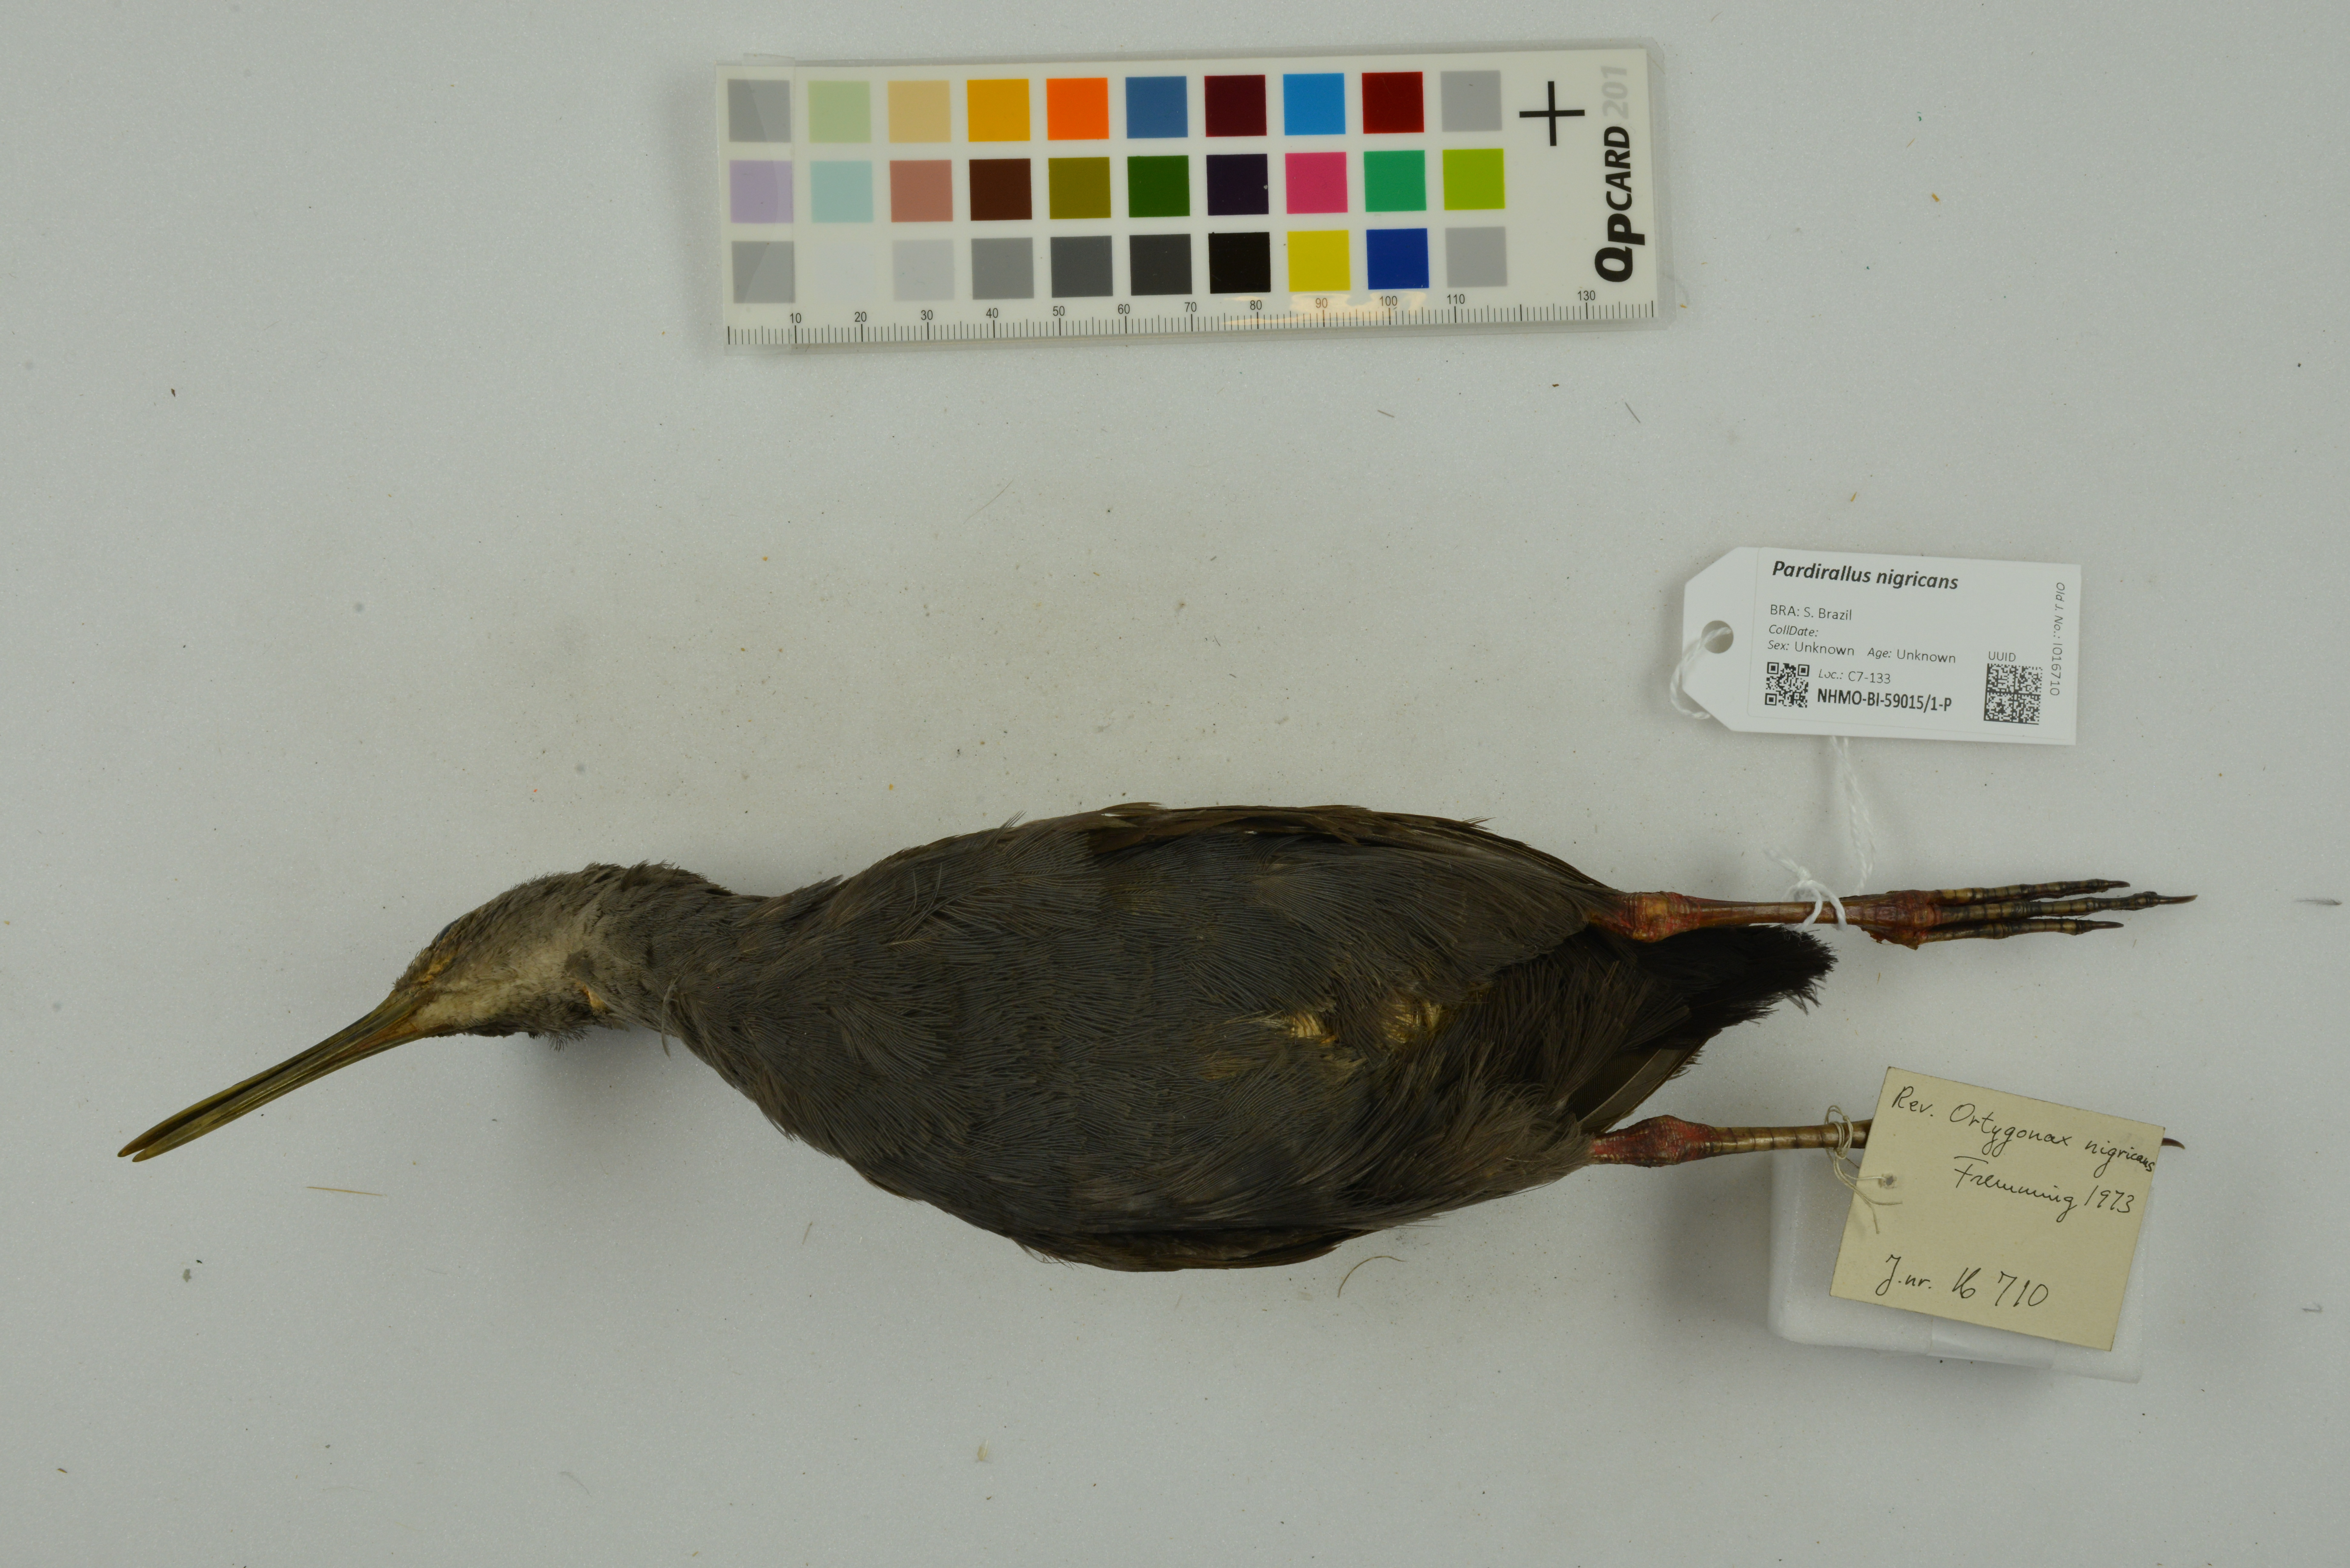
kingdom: Animalia
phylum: Chordata
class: Aves
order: Gruiformes
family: Rallidae
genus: Pardirallus
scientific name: Pardirallus nigricans
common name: Blackish rail
